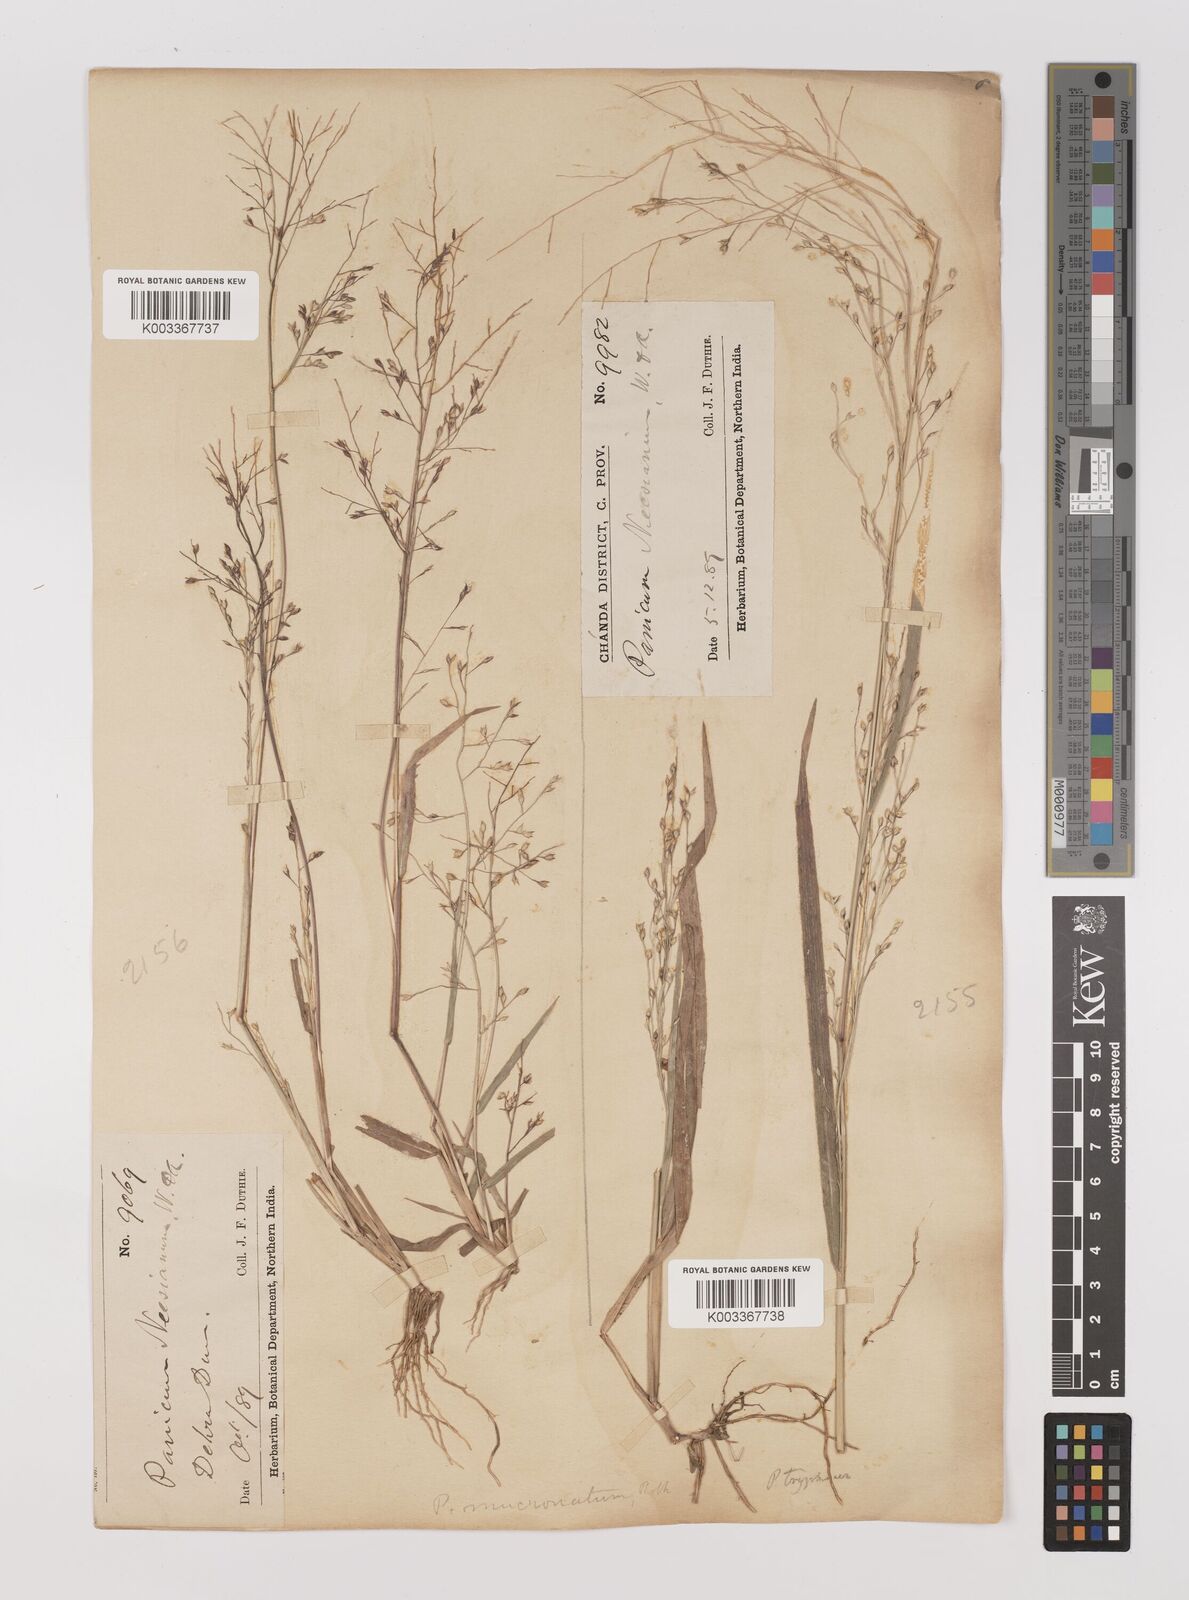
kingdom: Plantae
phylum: Tracheophyta
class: Liliopsida
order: Poales
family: Poaceae
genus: Panicum
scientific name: Panicum curviflorum
